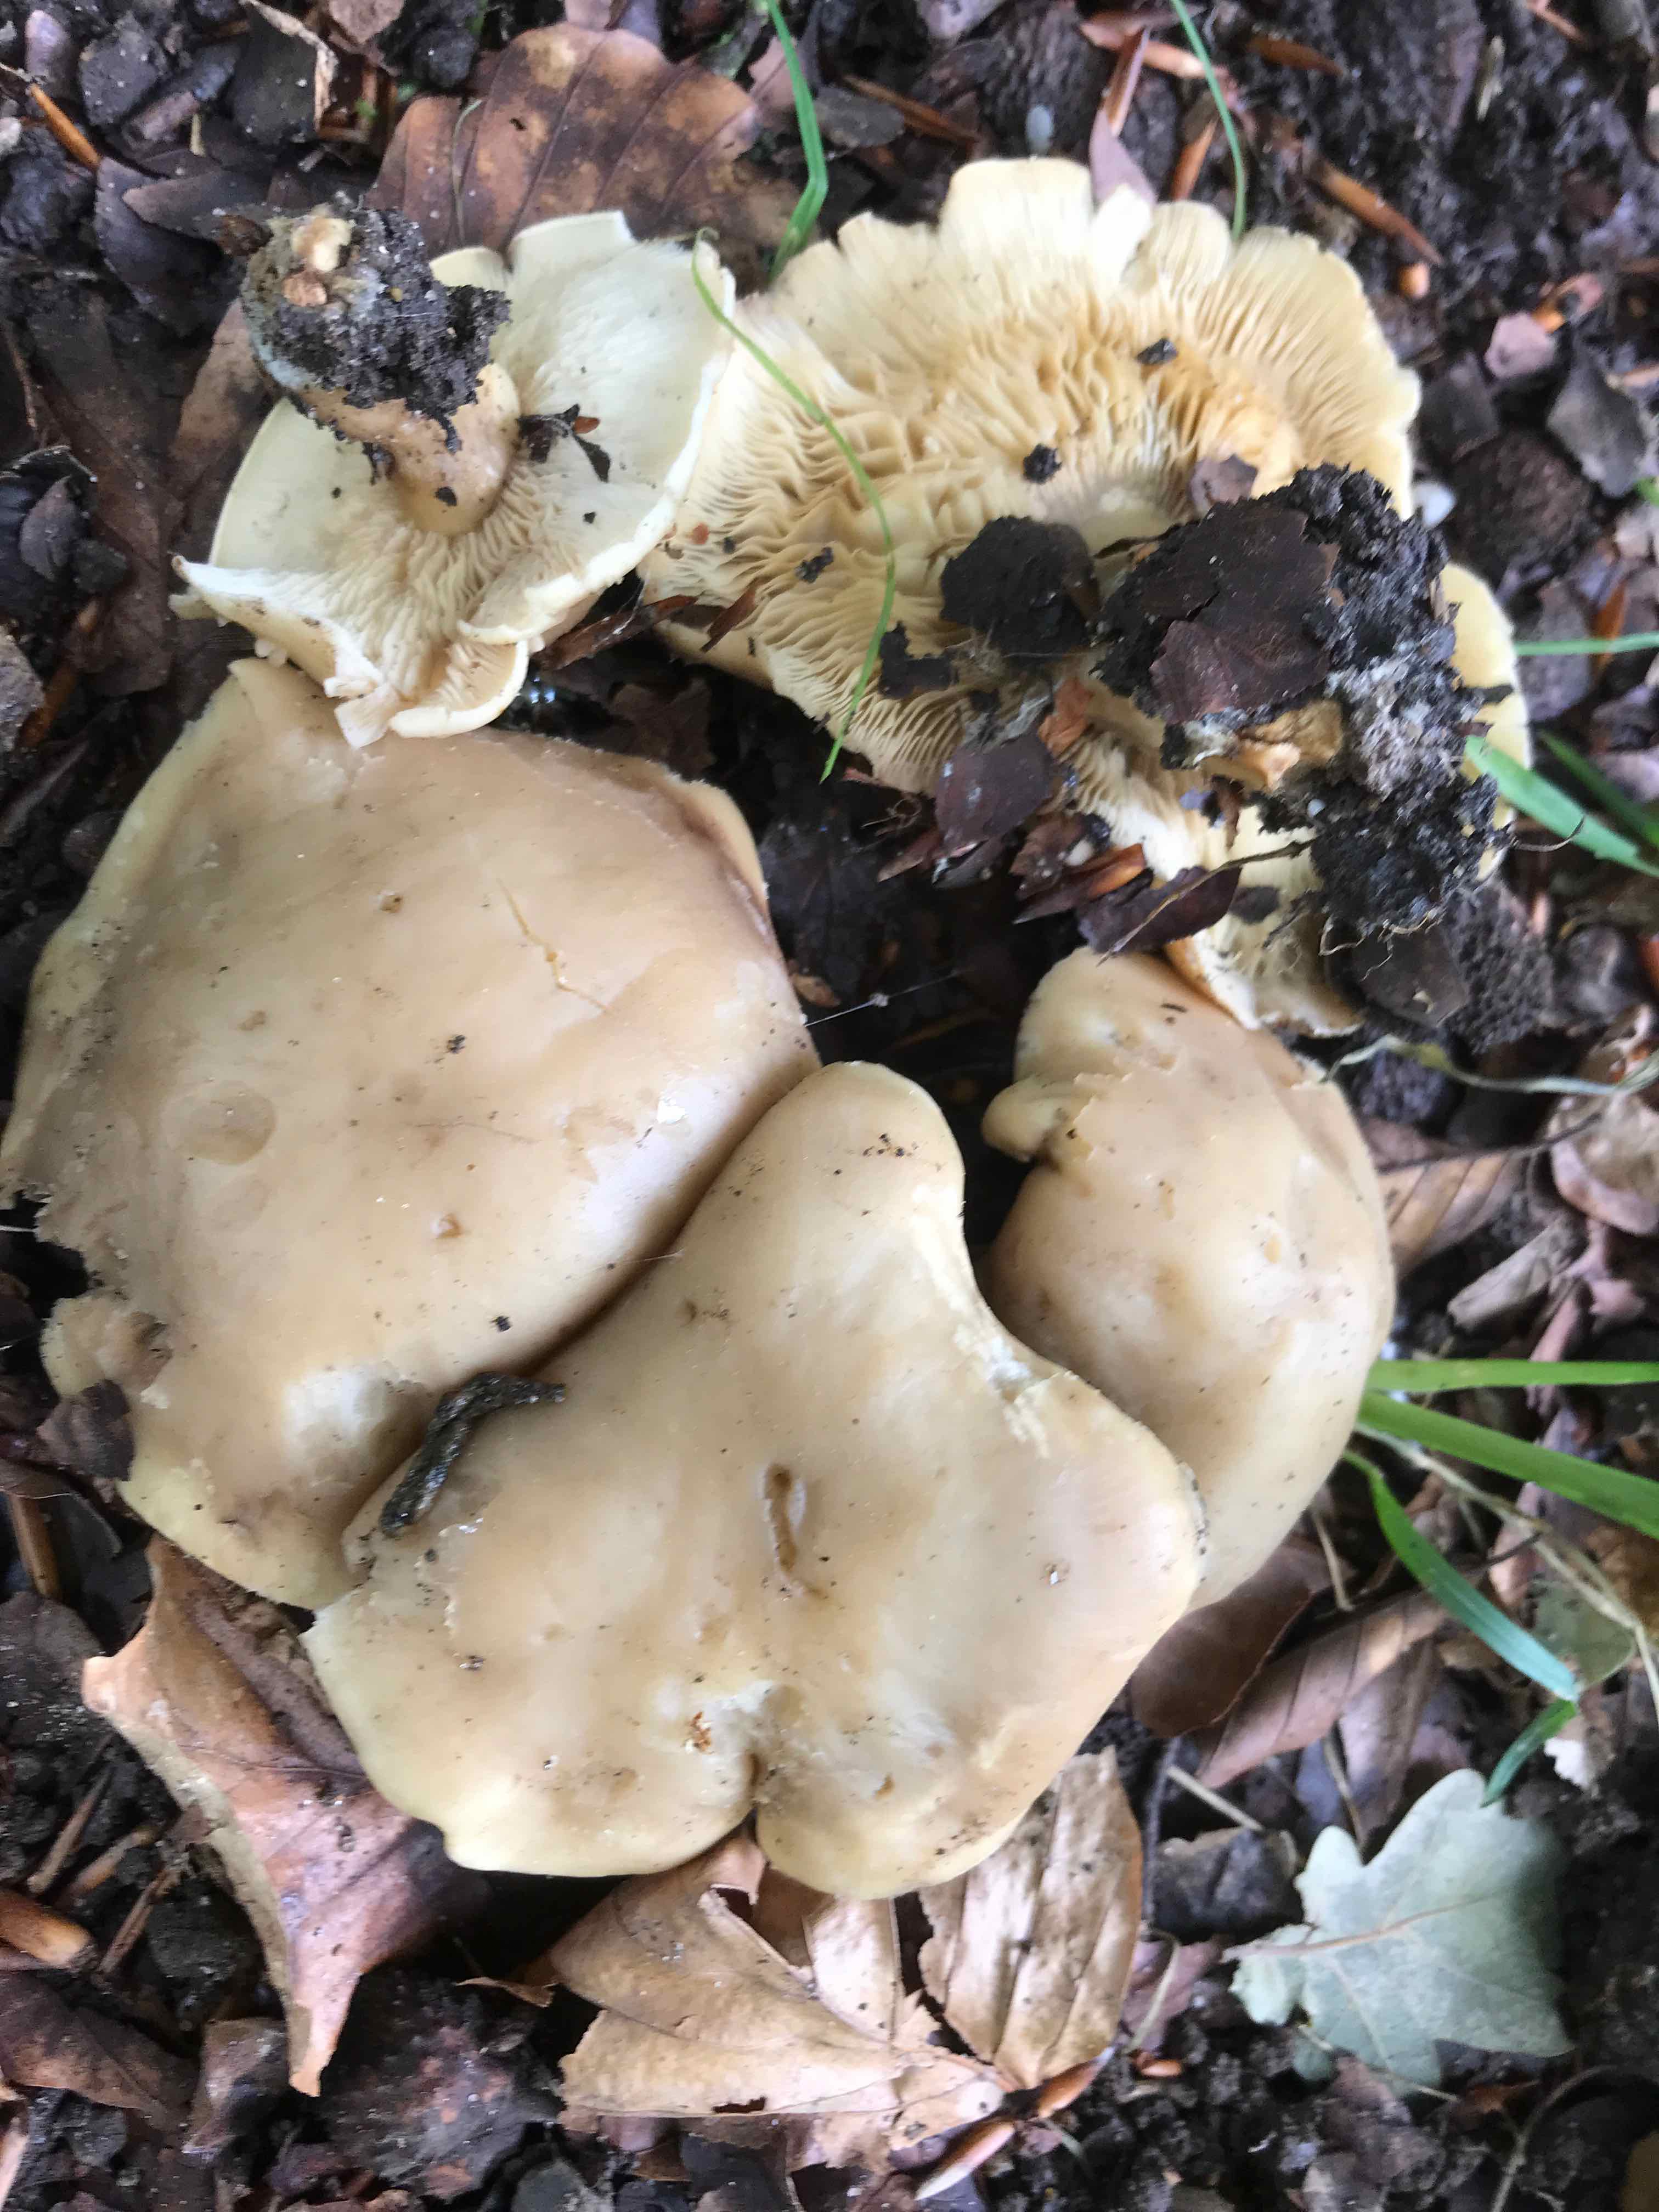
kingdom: Fungi
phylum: Basidiomycota
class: Agaricomycetes
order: Agaricales
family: Lyophyllaceae
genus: Calocybe
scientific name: Calocybe gambosa
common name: vårmusseron
